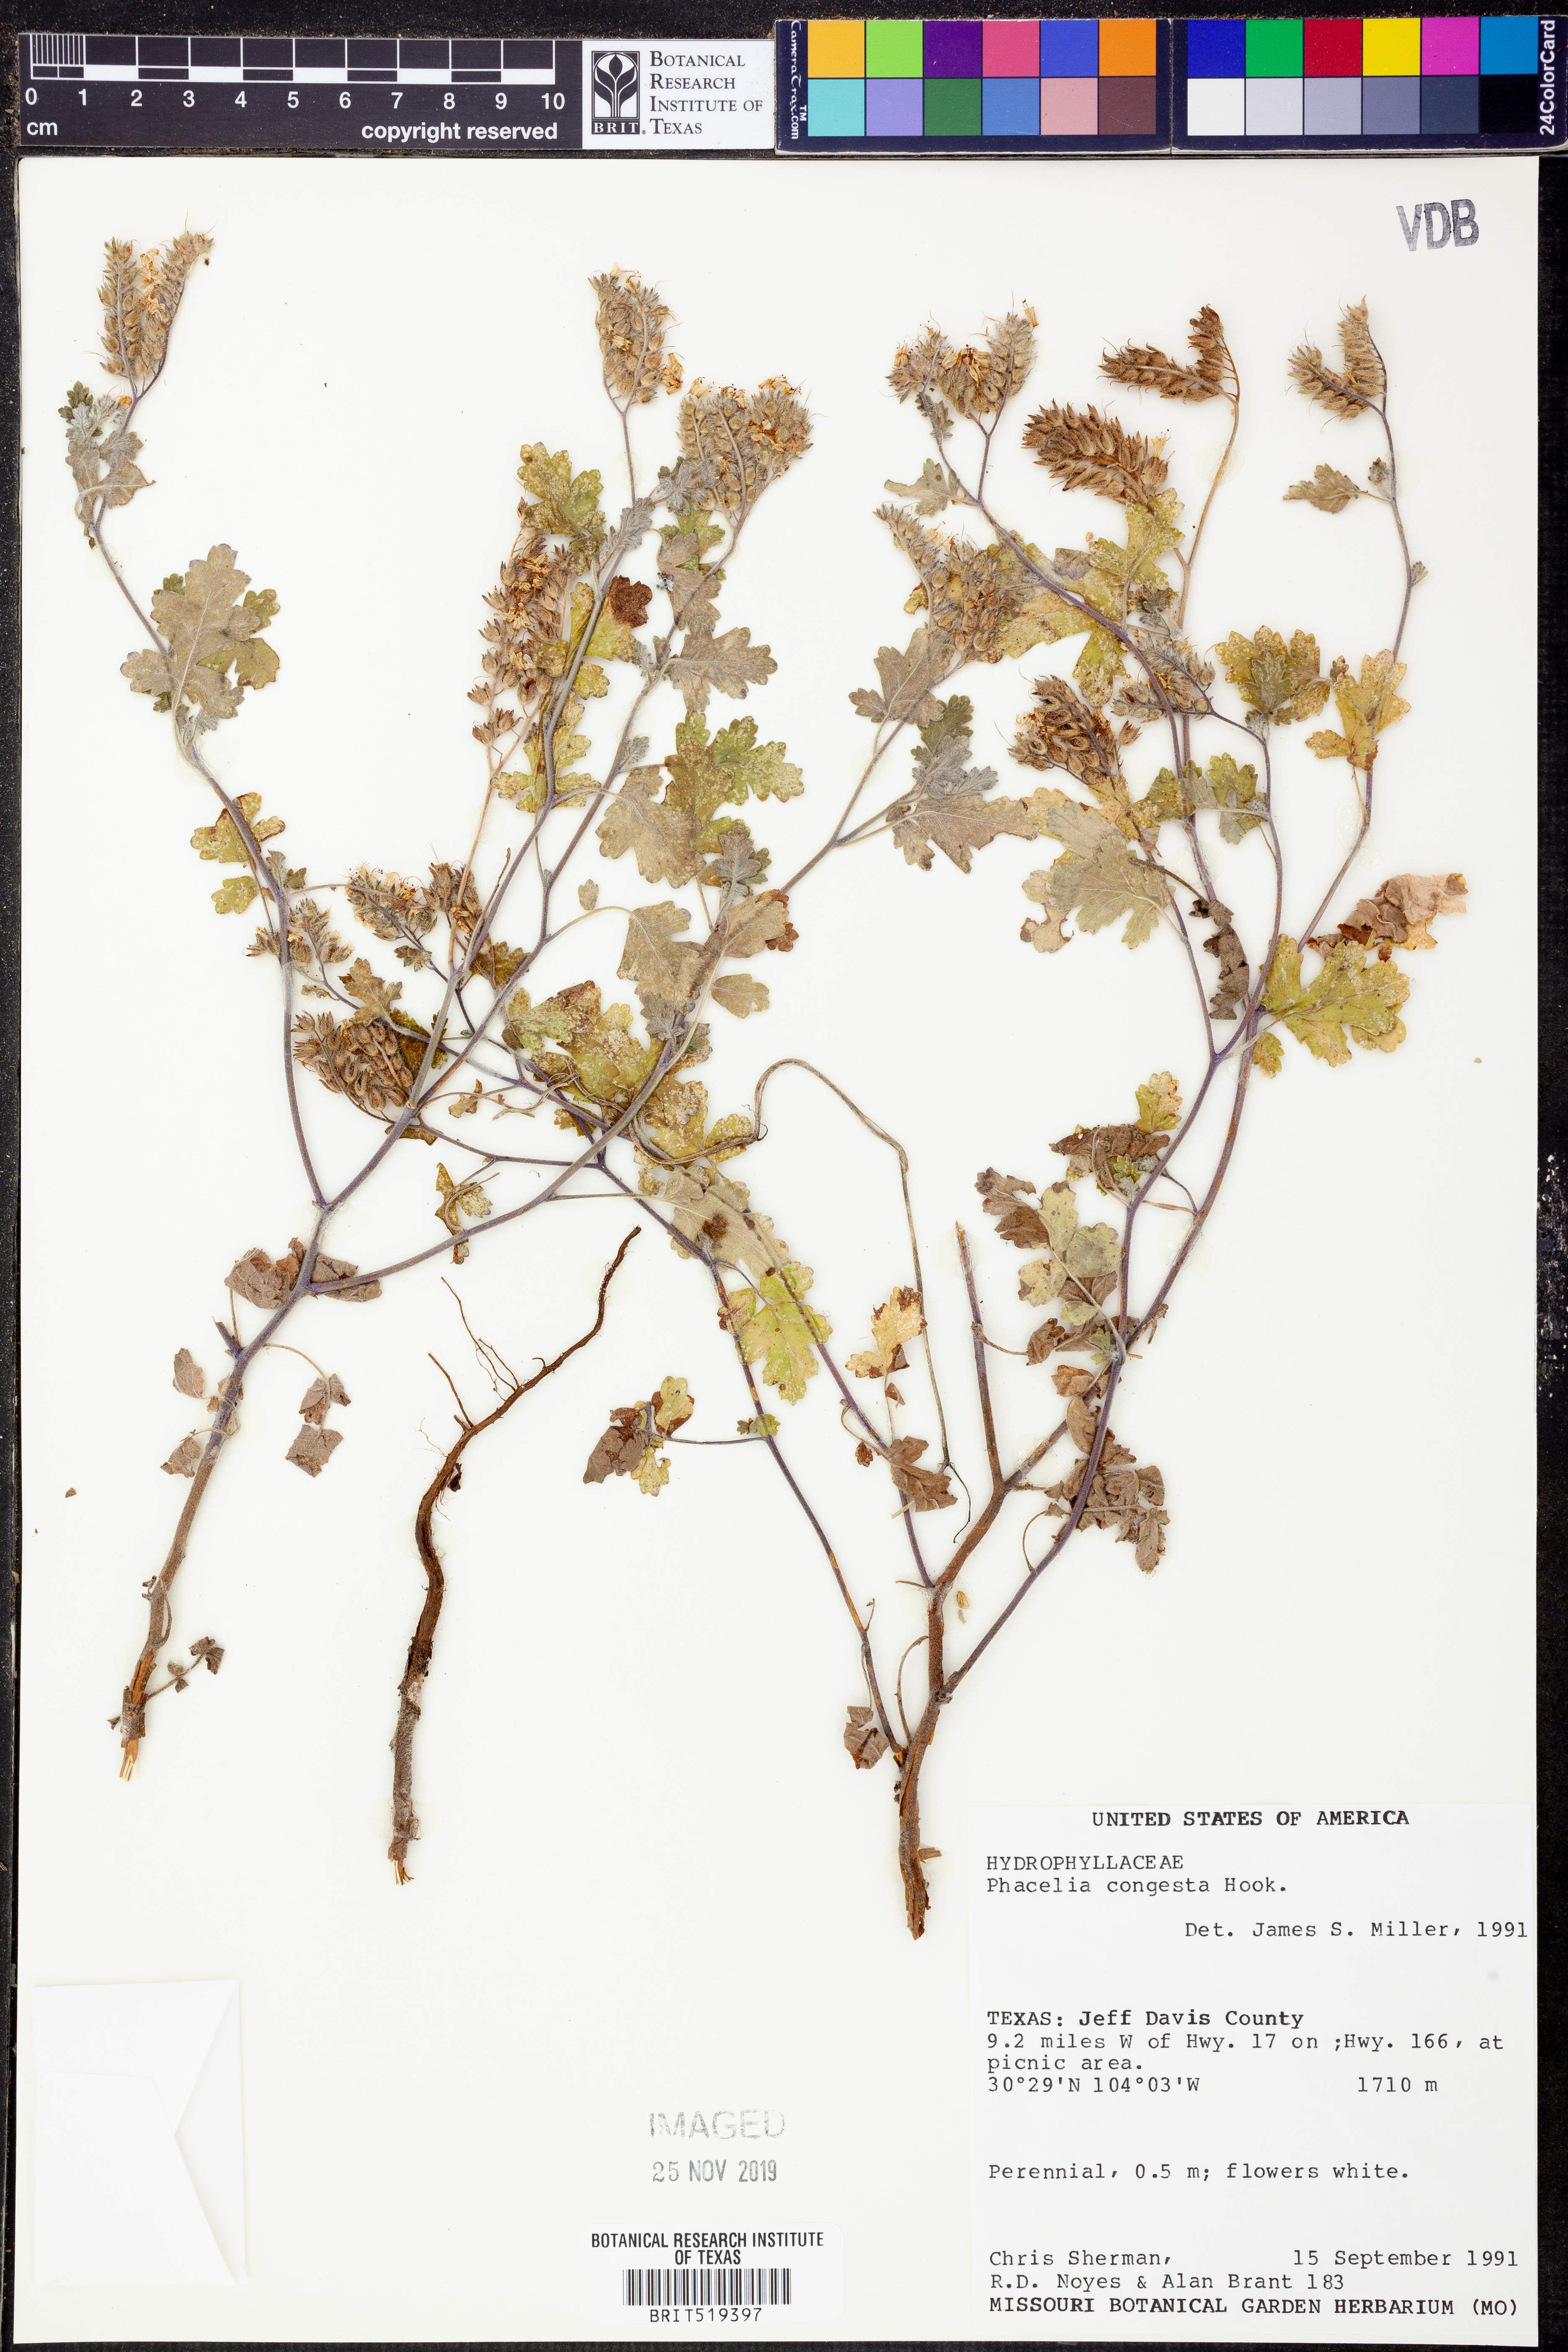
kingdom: Plantae
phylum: Tracheophyta
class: Magnoliopsida
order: Boraginales
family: Hydrophyllaceae
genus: Phacelia
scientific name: Phacelia congesta
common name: Blue curls
